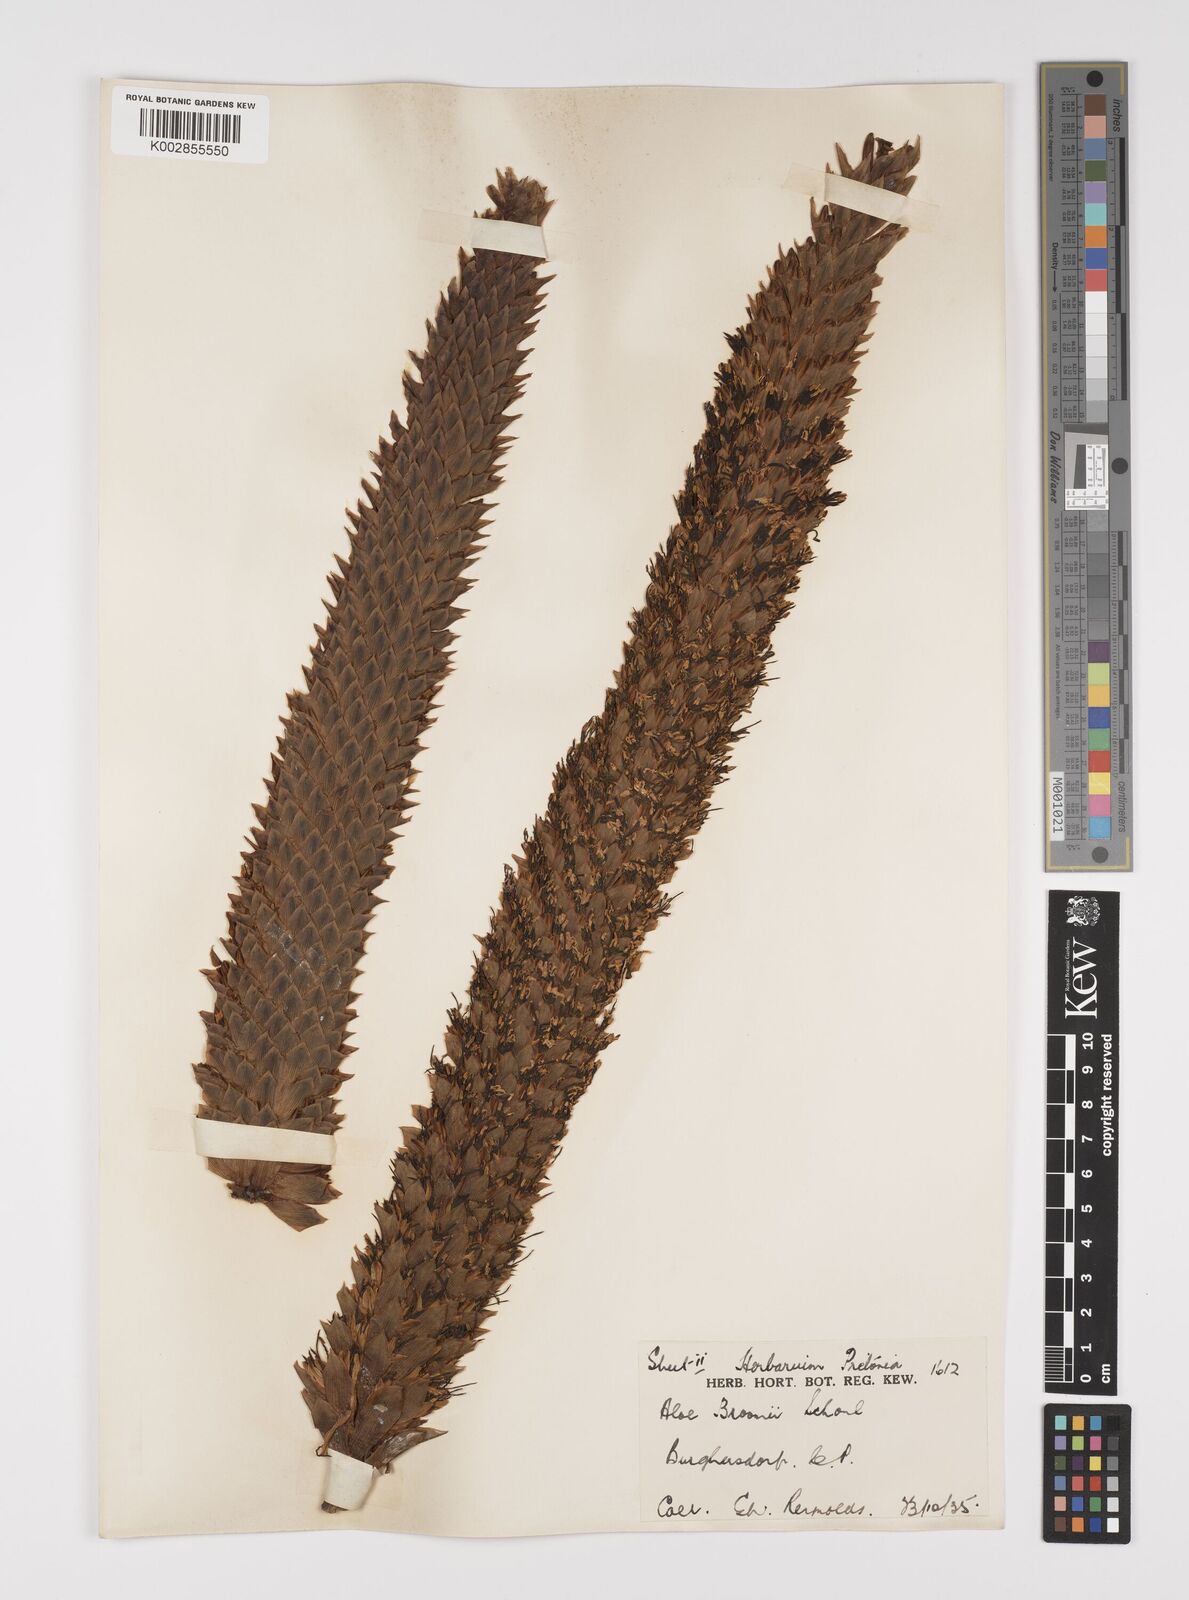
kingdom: Plantae
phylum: Tracheophyta
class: Liliopsida
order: Asparagales
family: Asphodelaceae
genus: Aloe
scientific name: Aloe broomii
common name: Berg alwyn
